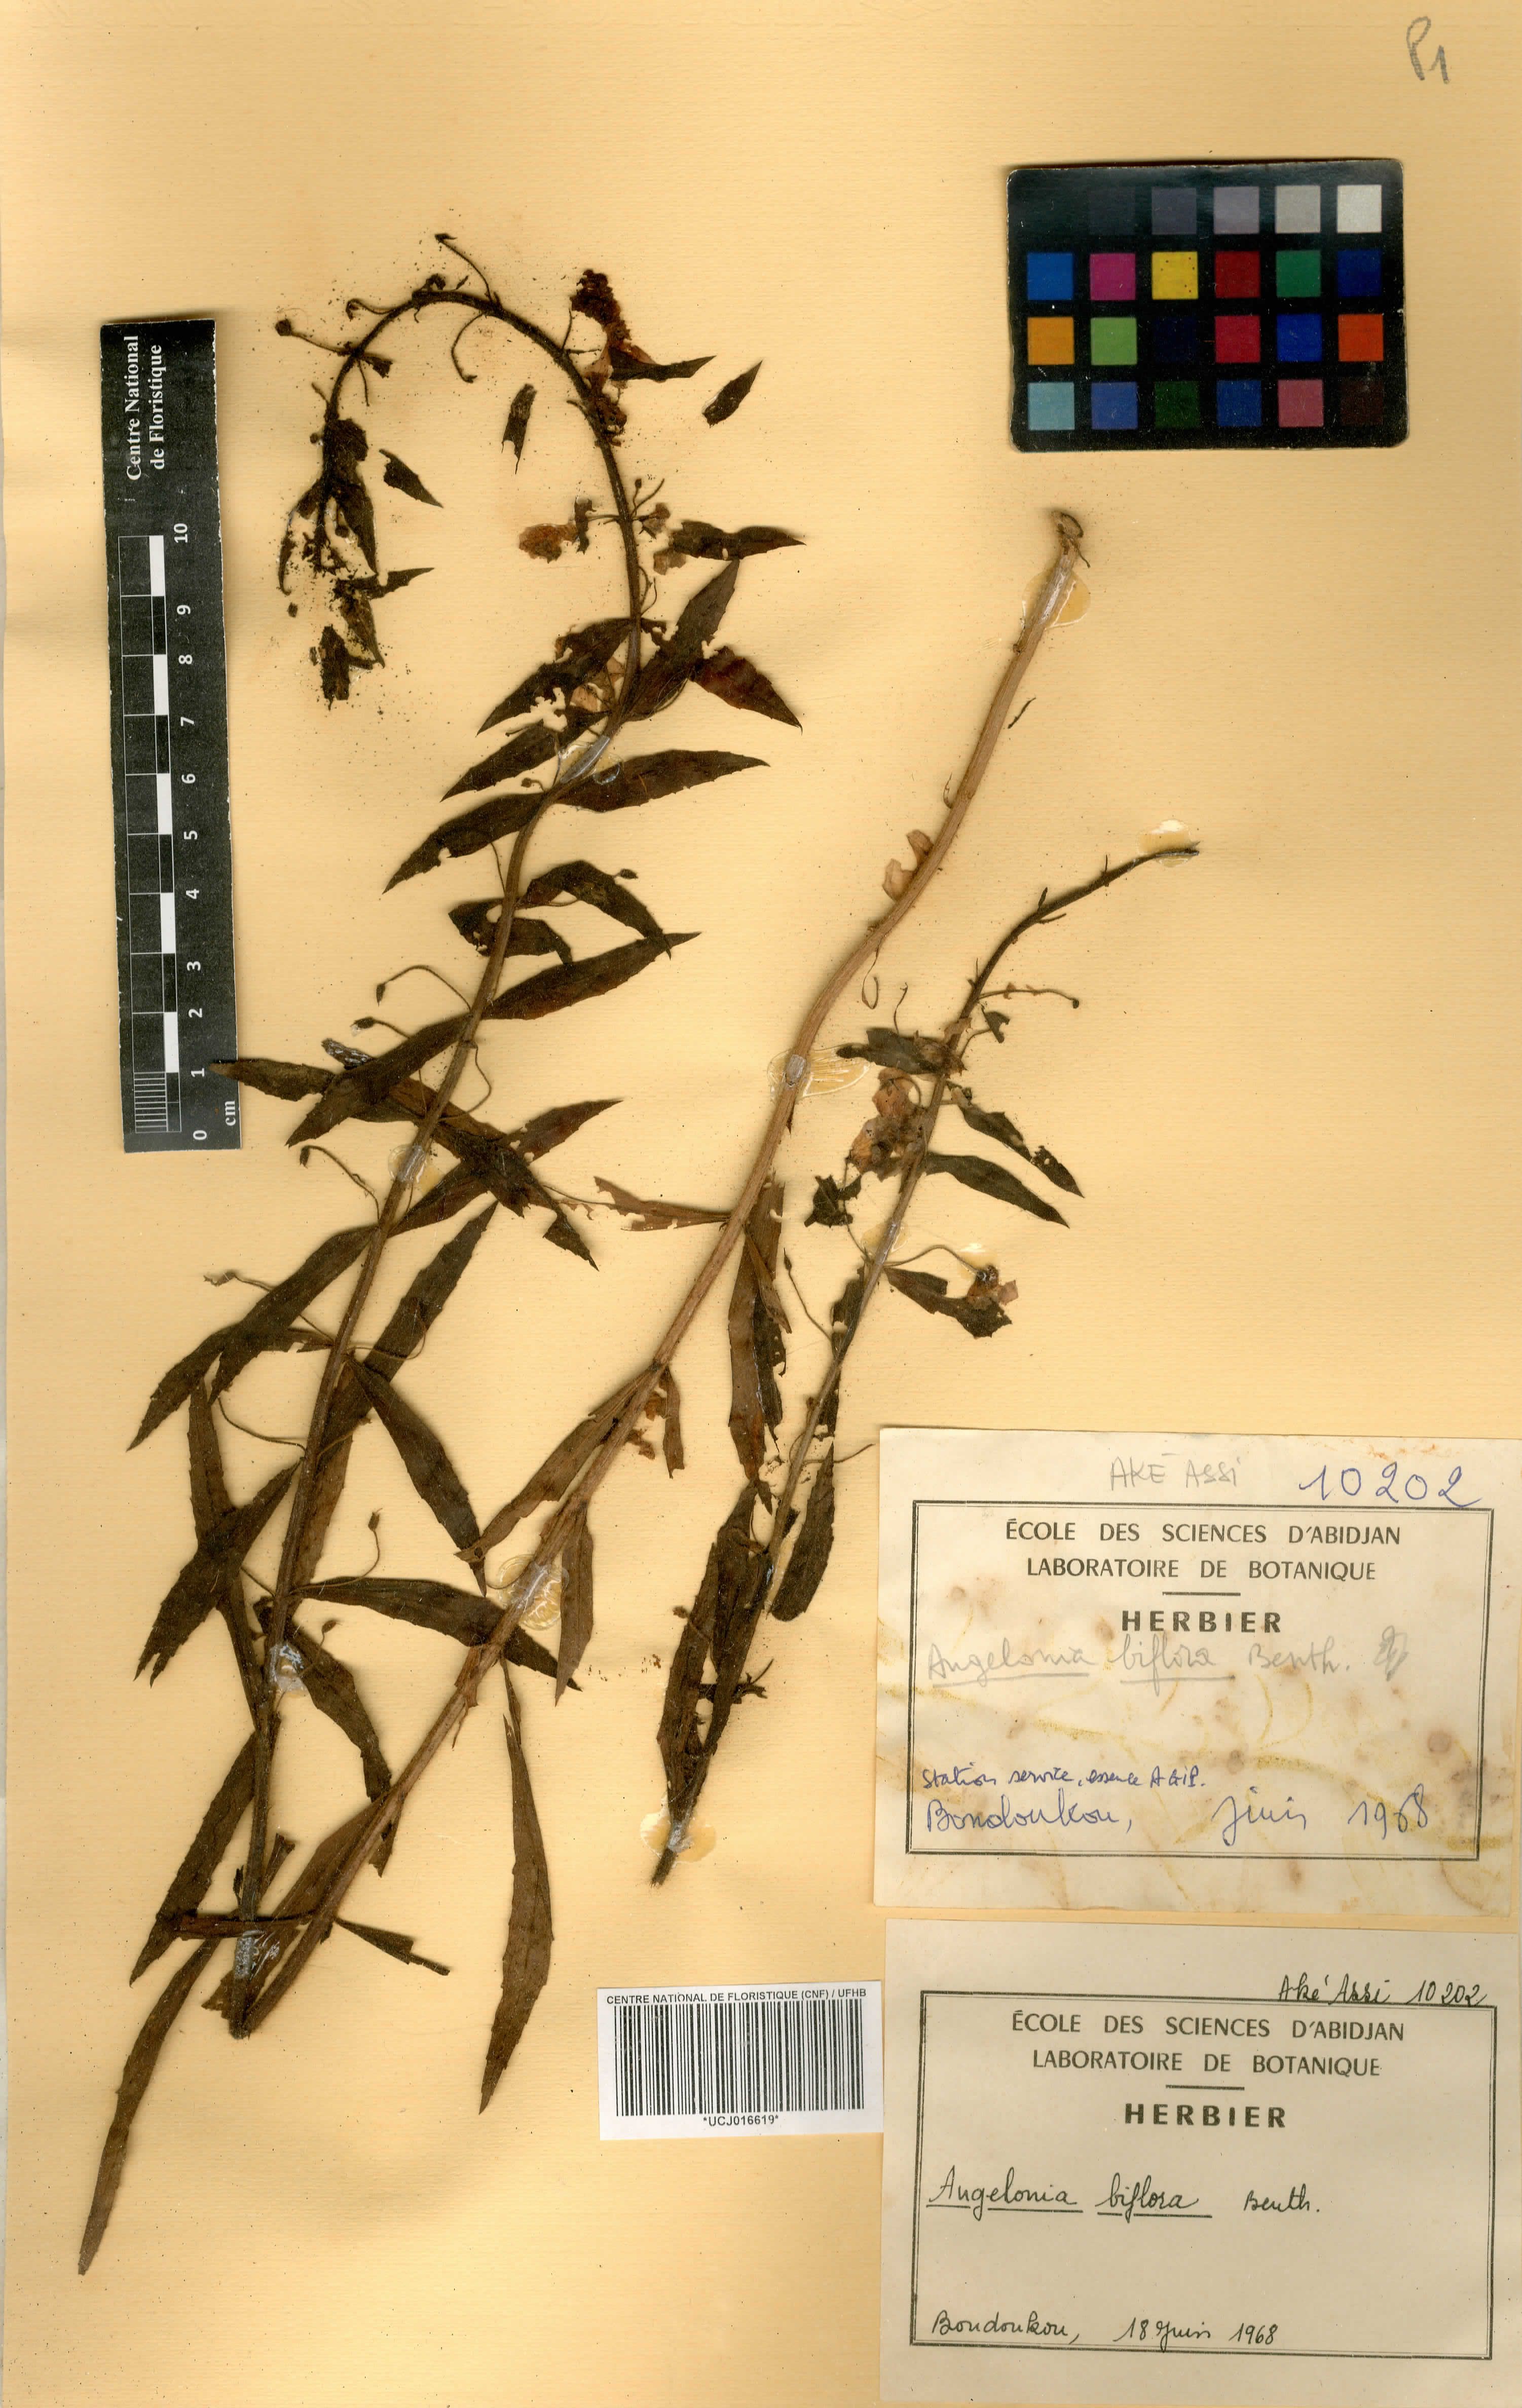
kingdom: Plantae
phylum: Tracheophyta
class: Magnoliopsida
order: Lamiales
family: Plantaginaceae
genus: Angelonia
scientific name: Angelonia biflora
